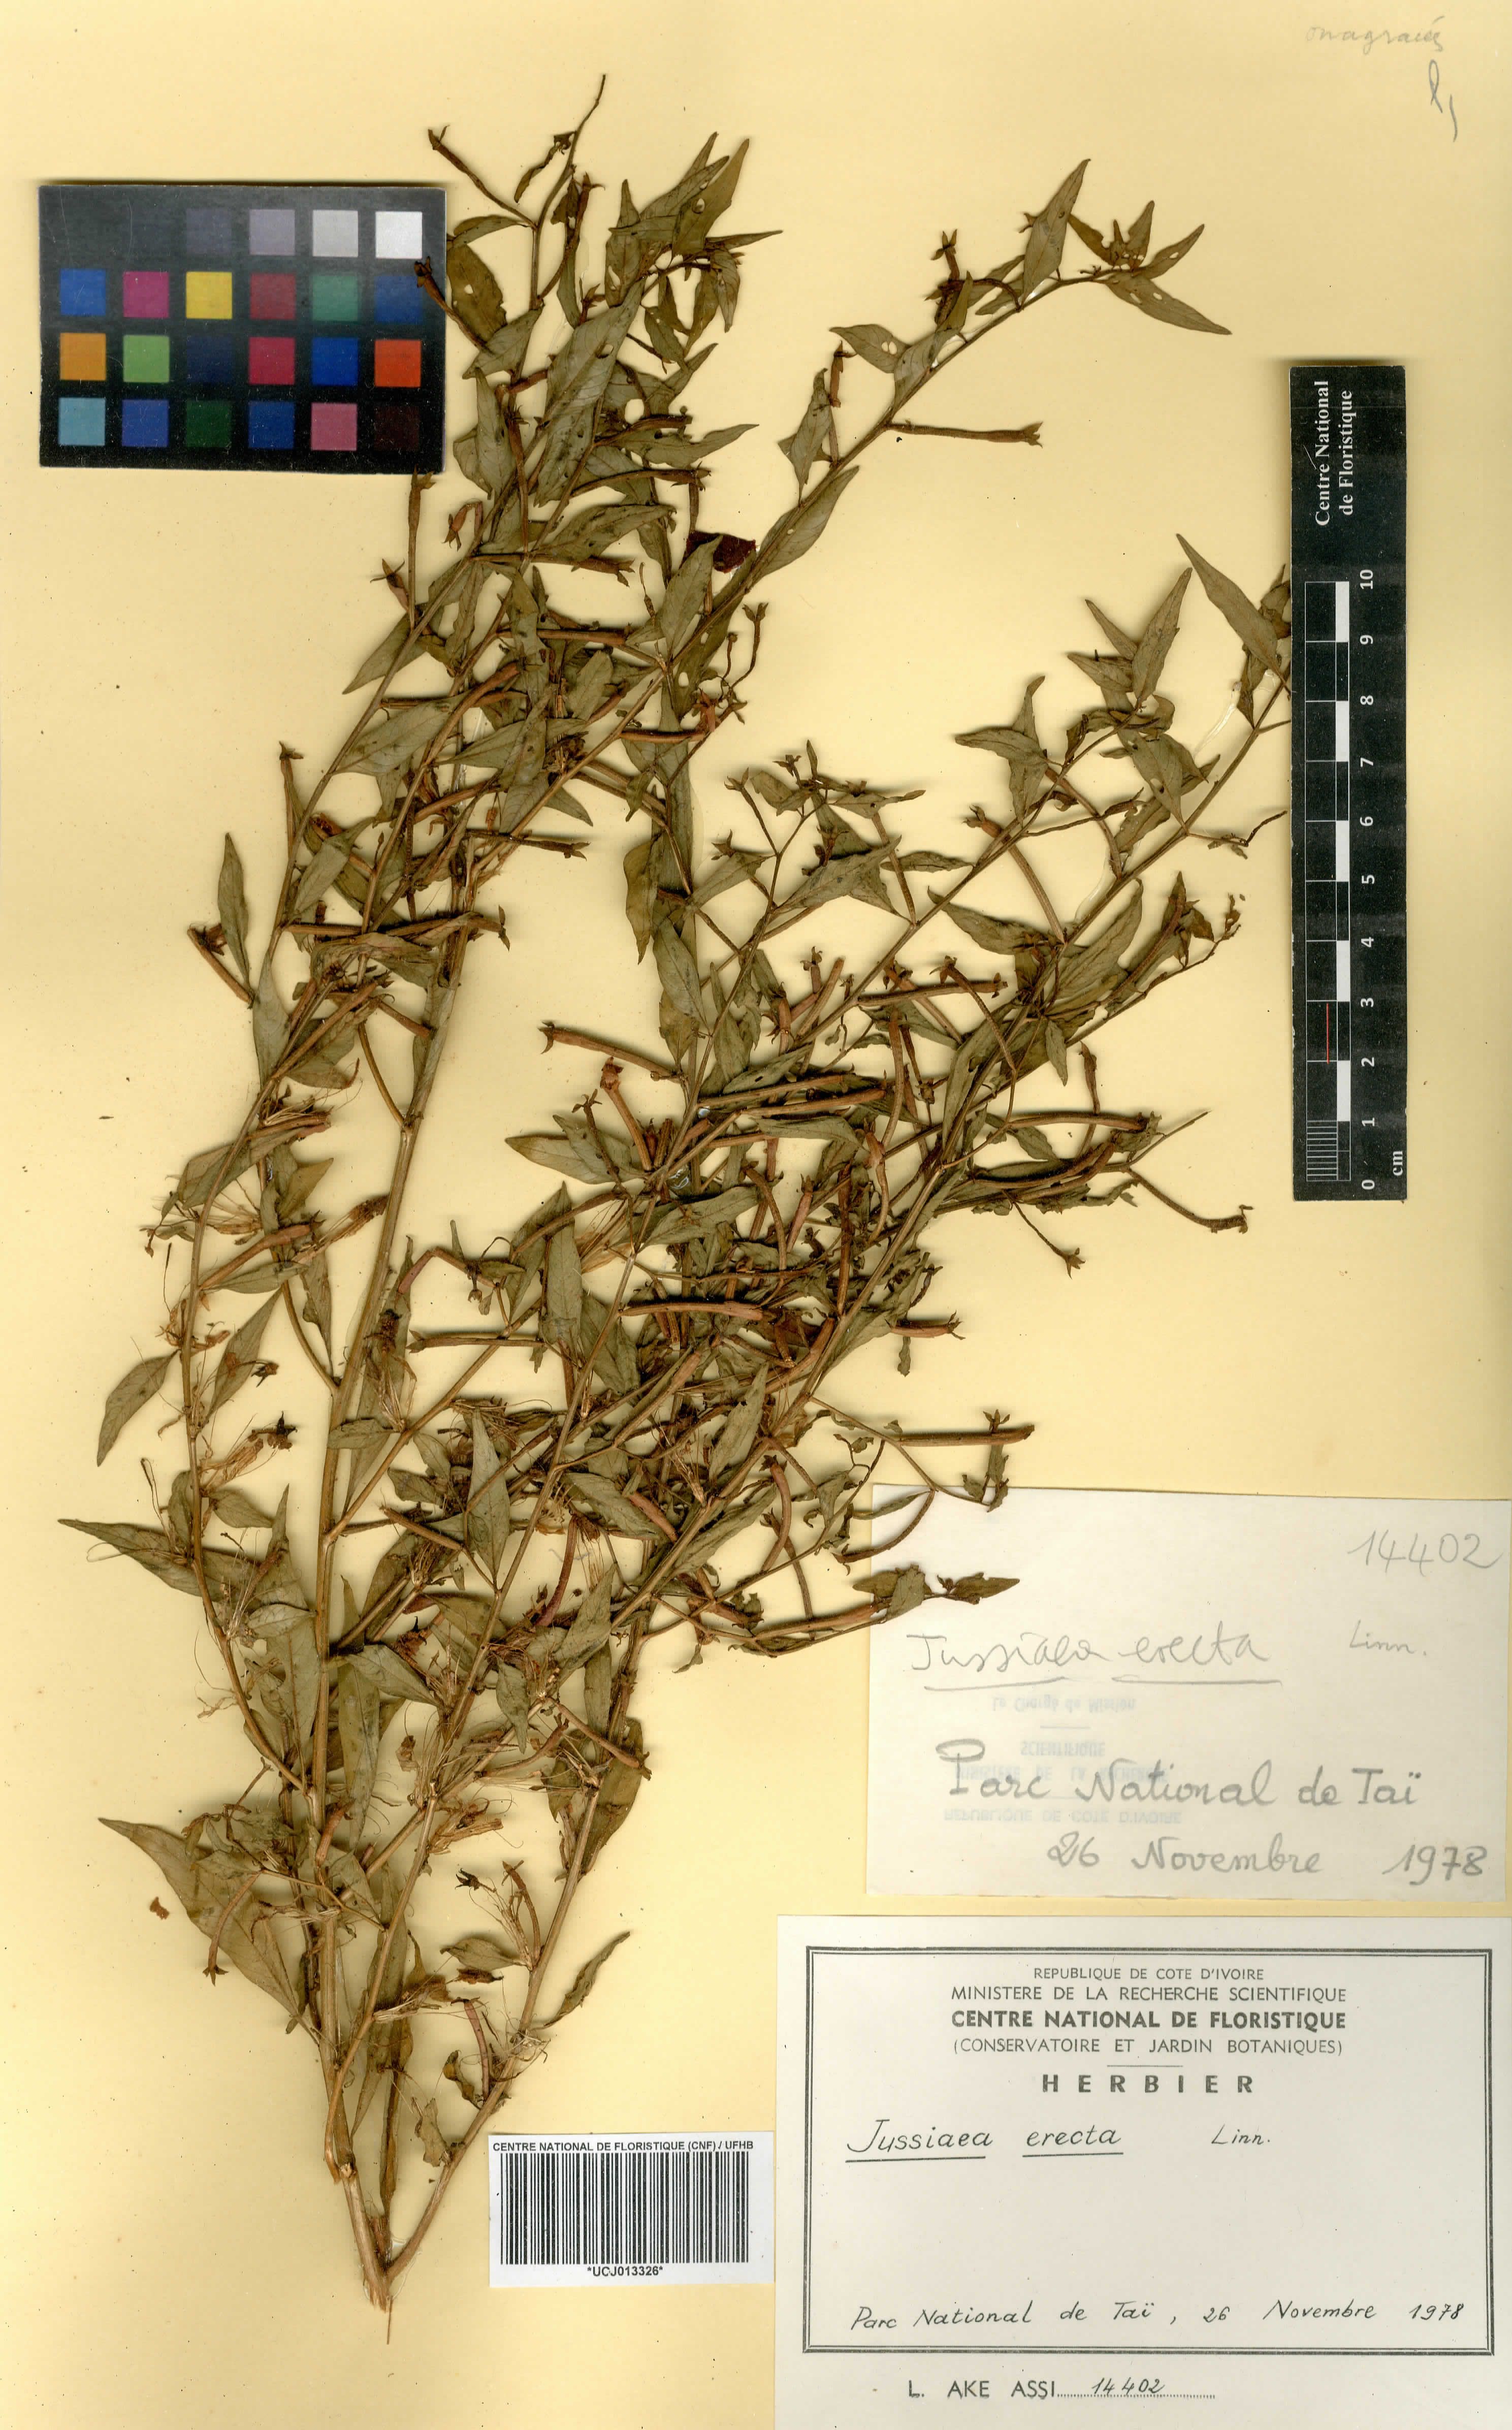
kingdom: Plantae
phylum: Tracheophyta
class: Magnoliopsida
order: Myrtales
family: Onagraceae
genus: Ludwigia
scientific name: Ludwigia erecta
